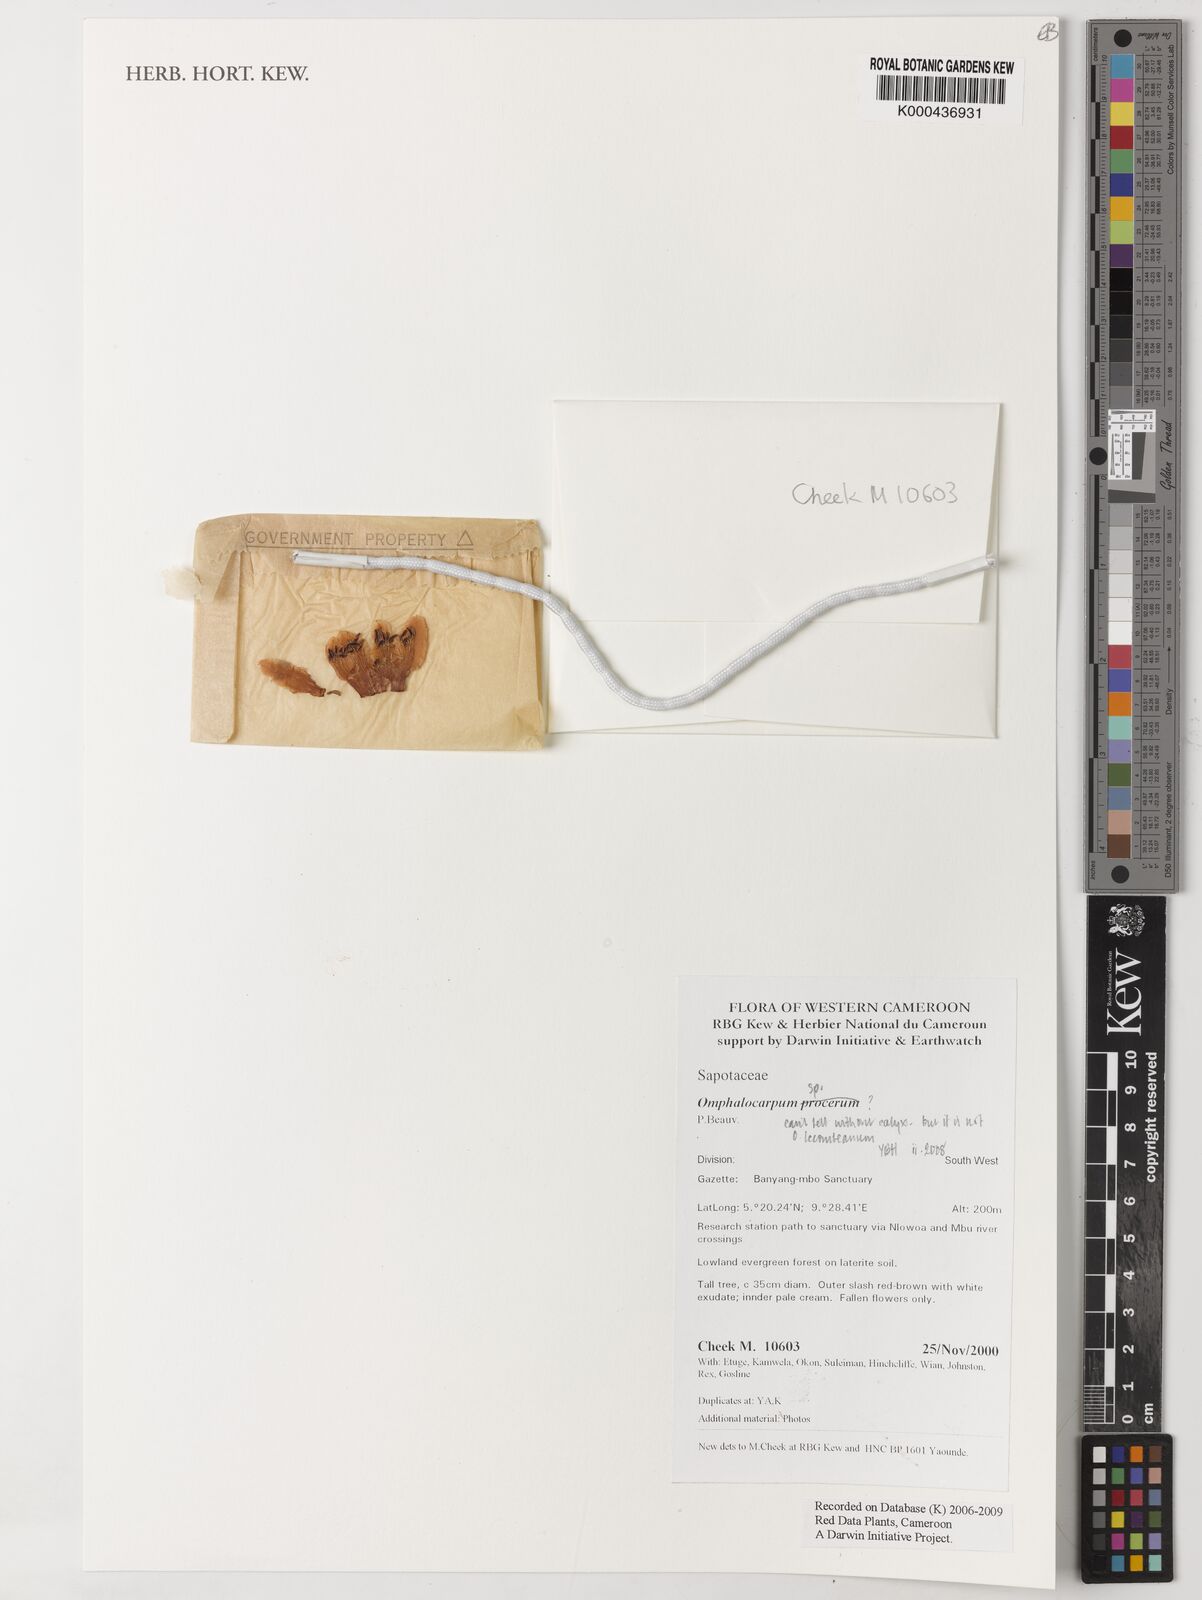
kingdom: Plantae
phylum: Tracheophyta
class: Magnoliopsida
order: Ericales
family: Sapotaceae
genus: Omphalocarpum
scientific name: Omphalocarpum
